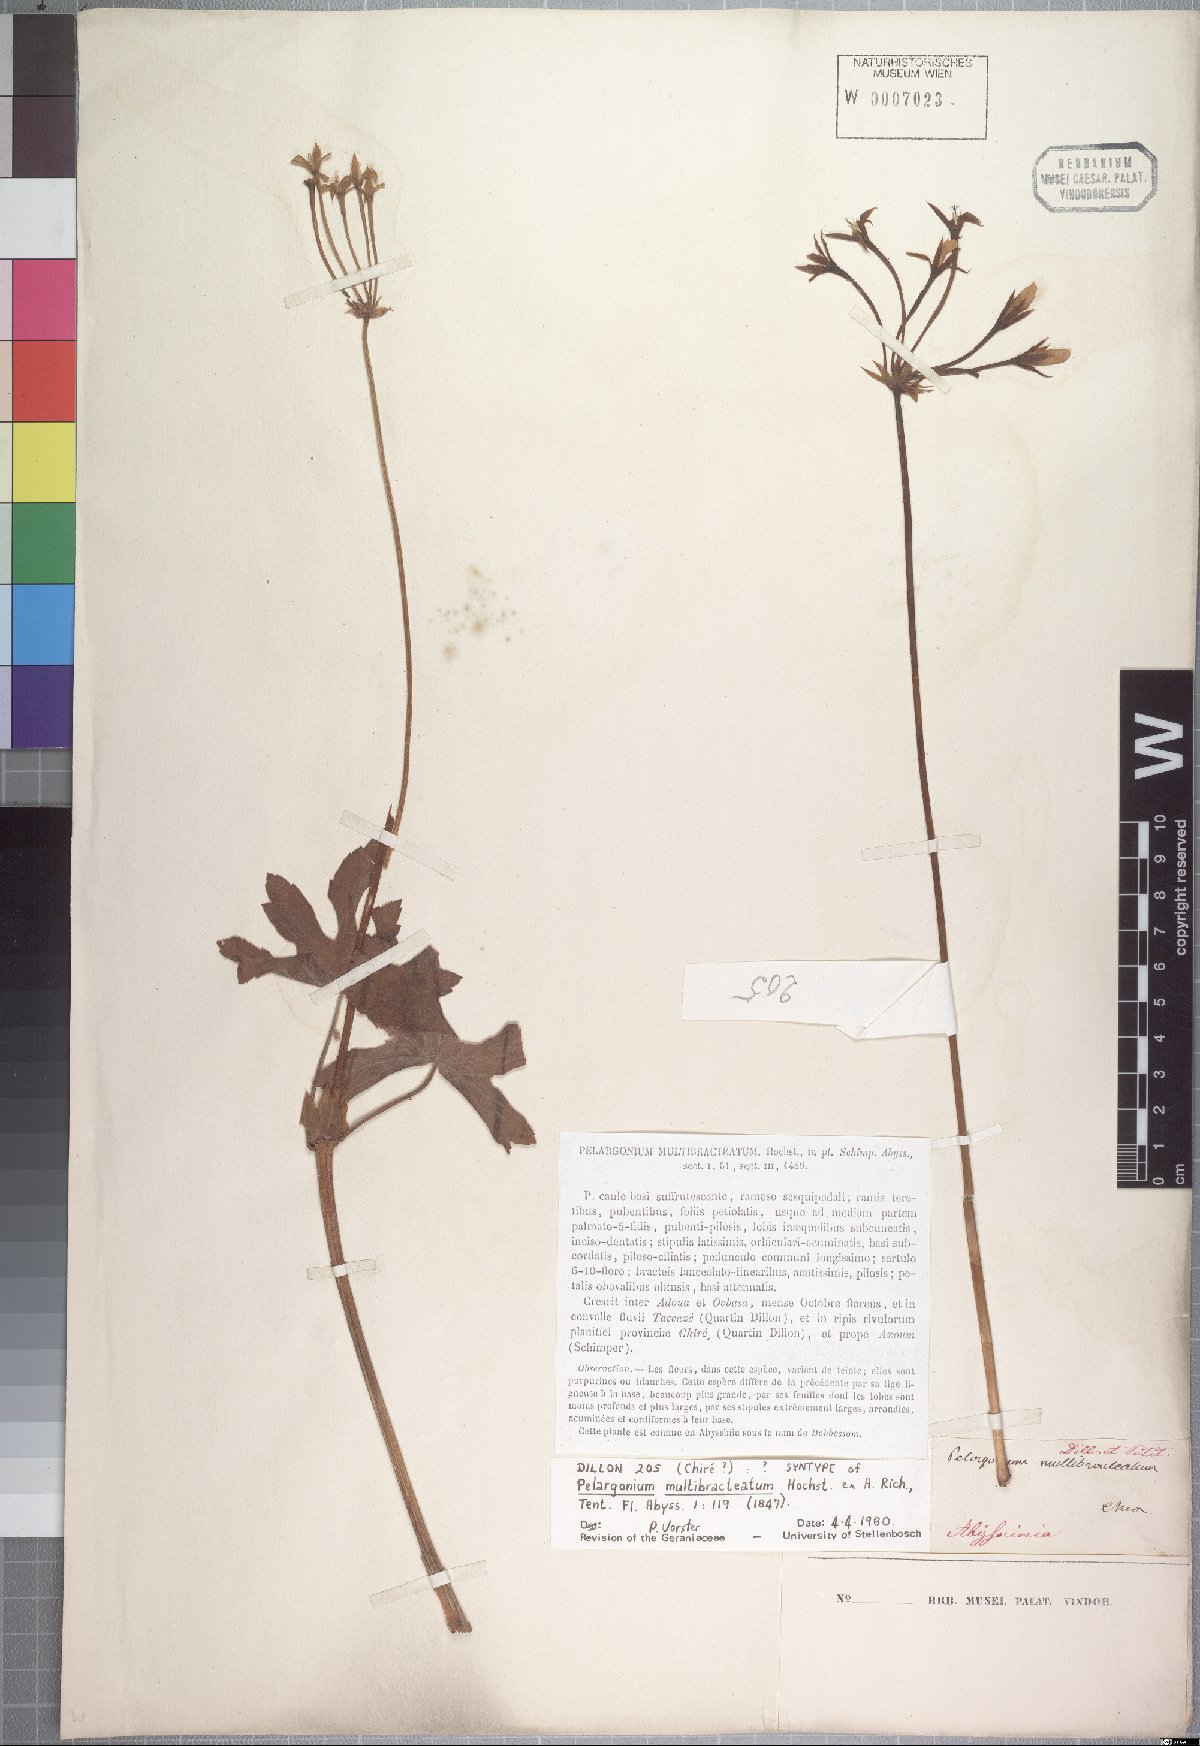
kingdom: Plantae
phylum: Tracheophyta
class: Magnoliopsida
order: Geraniales
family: Geraniaceae
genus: Pelargonium
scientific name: Pelargonium multibracteatum
